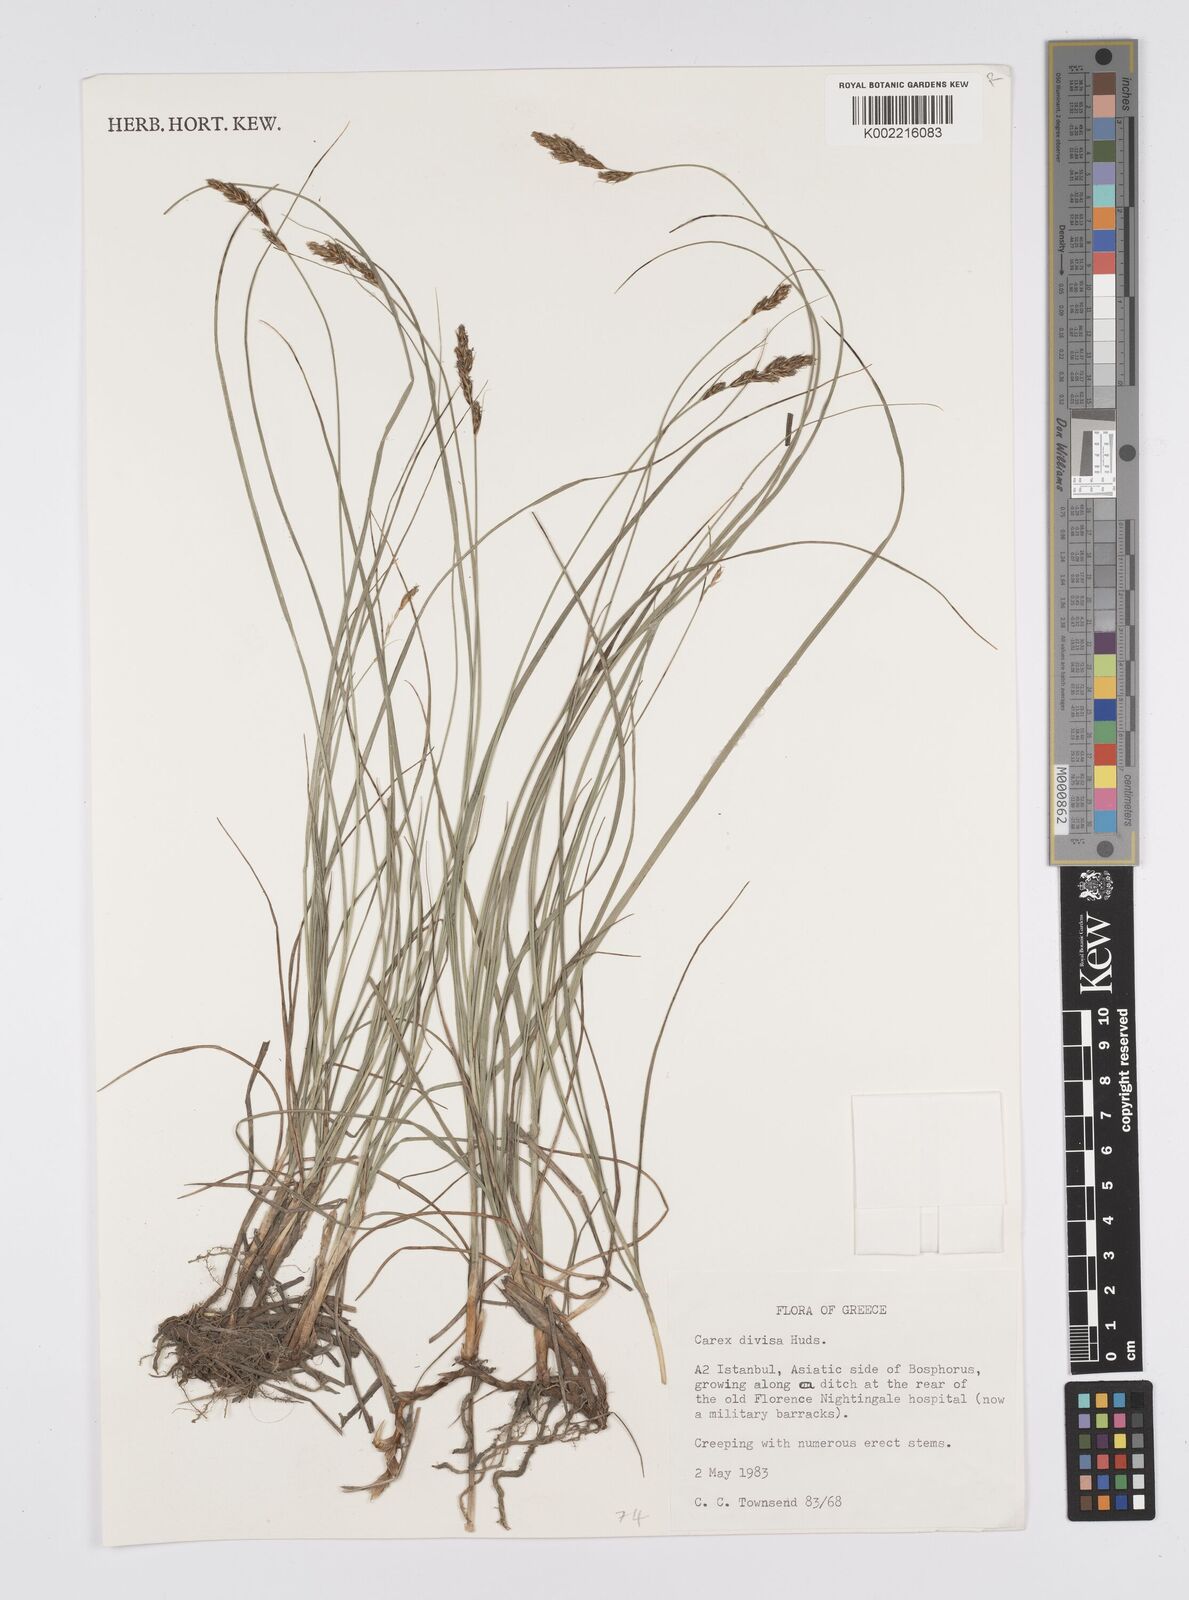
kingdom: Plantae
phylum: Tracheophyta
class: Liliopsida
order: Poales
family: Cyperaceae
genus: Carex
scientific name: Carex divisa
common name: Divided sedge
